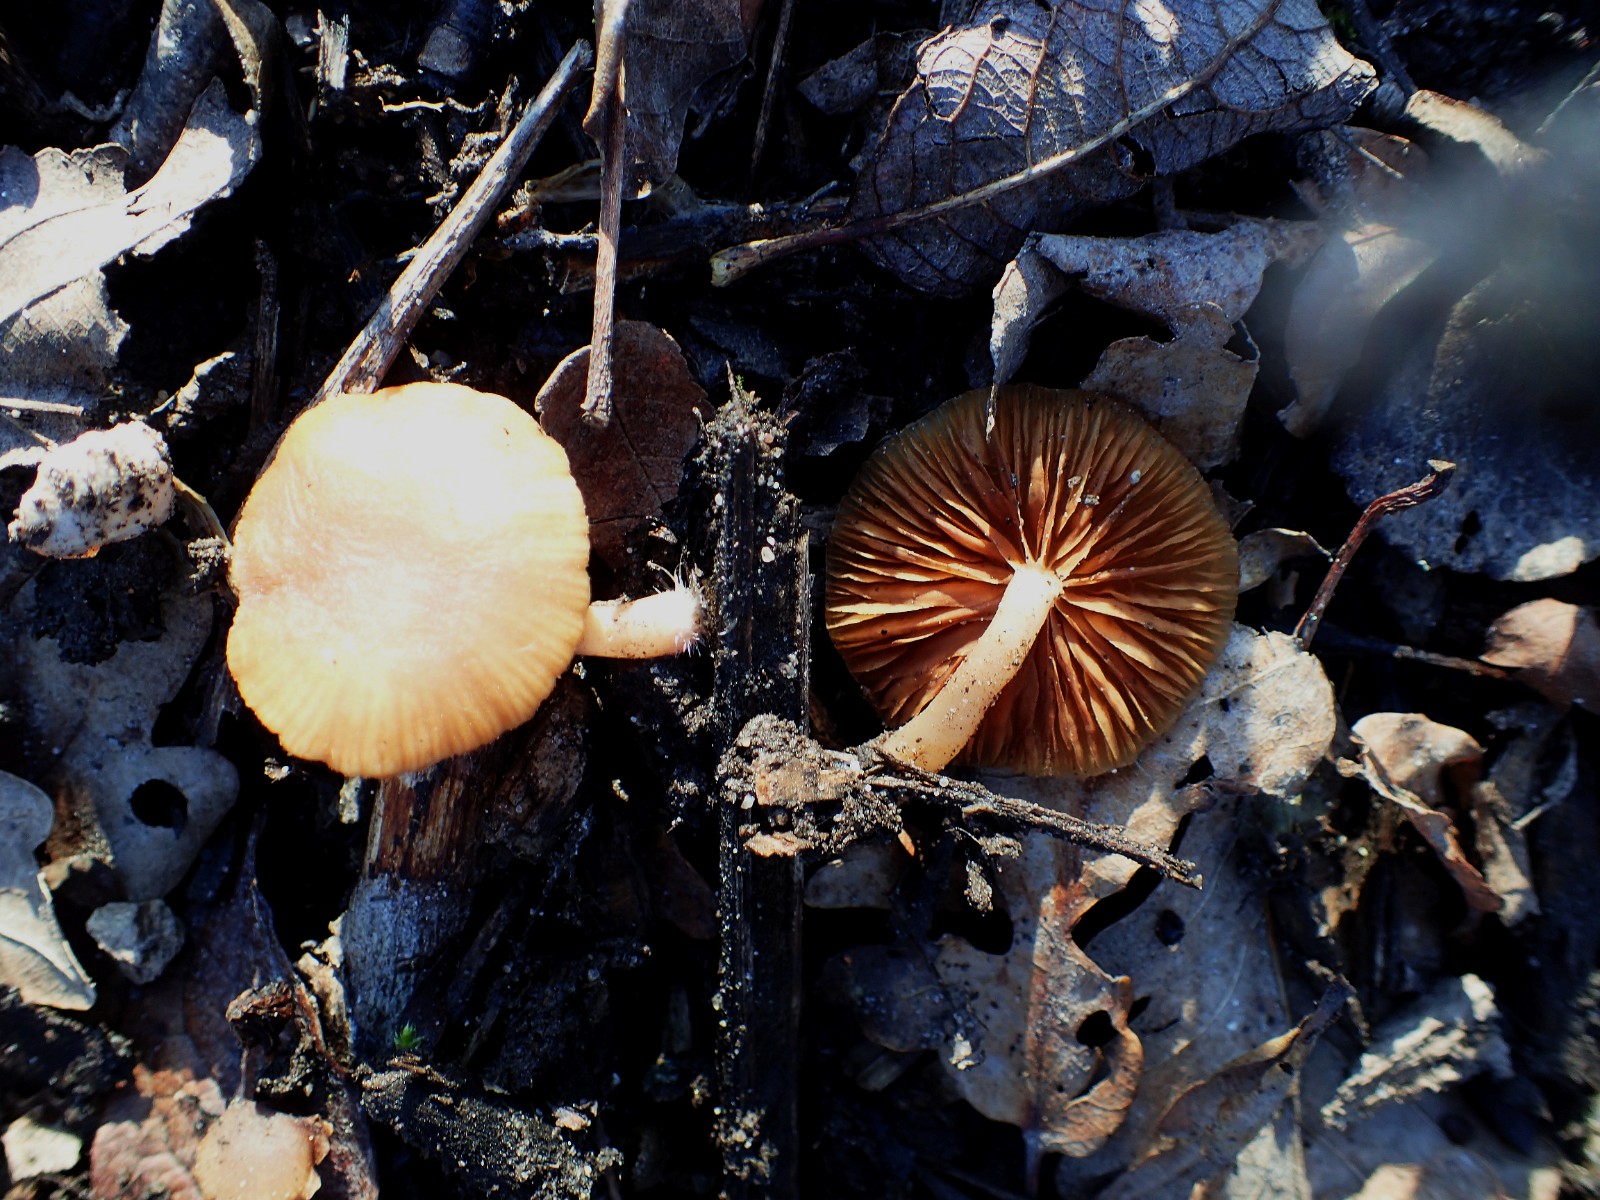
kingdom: Fungi
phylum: Basidiomycota
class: Agaricomycetes
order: Agaricales
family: Tubariaceae
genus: Tubaria
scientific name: Tubaria furfuracea
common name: kliddet fnughat
